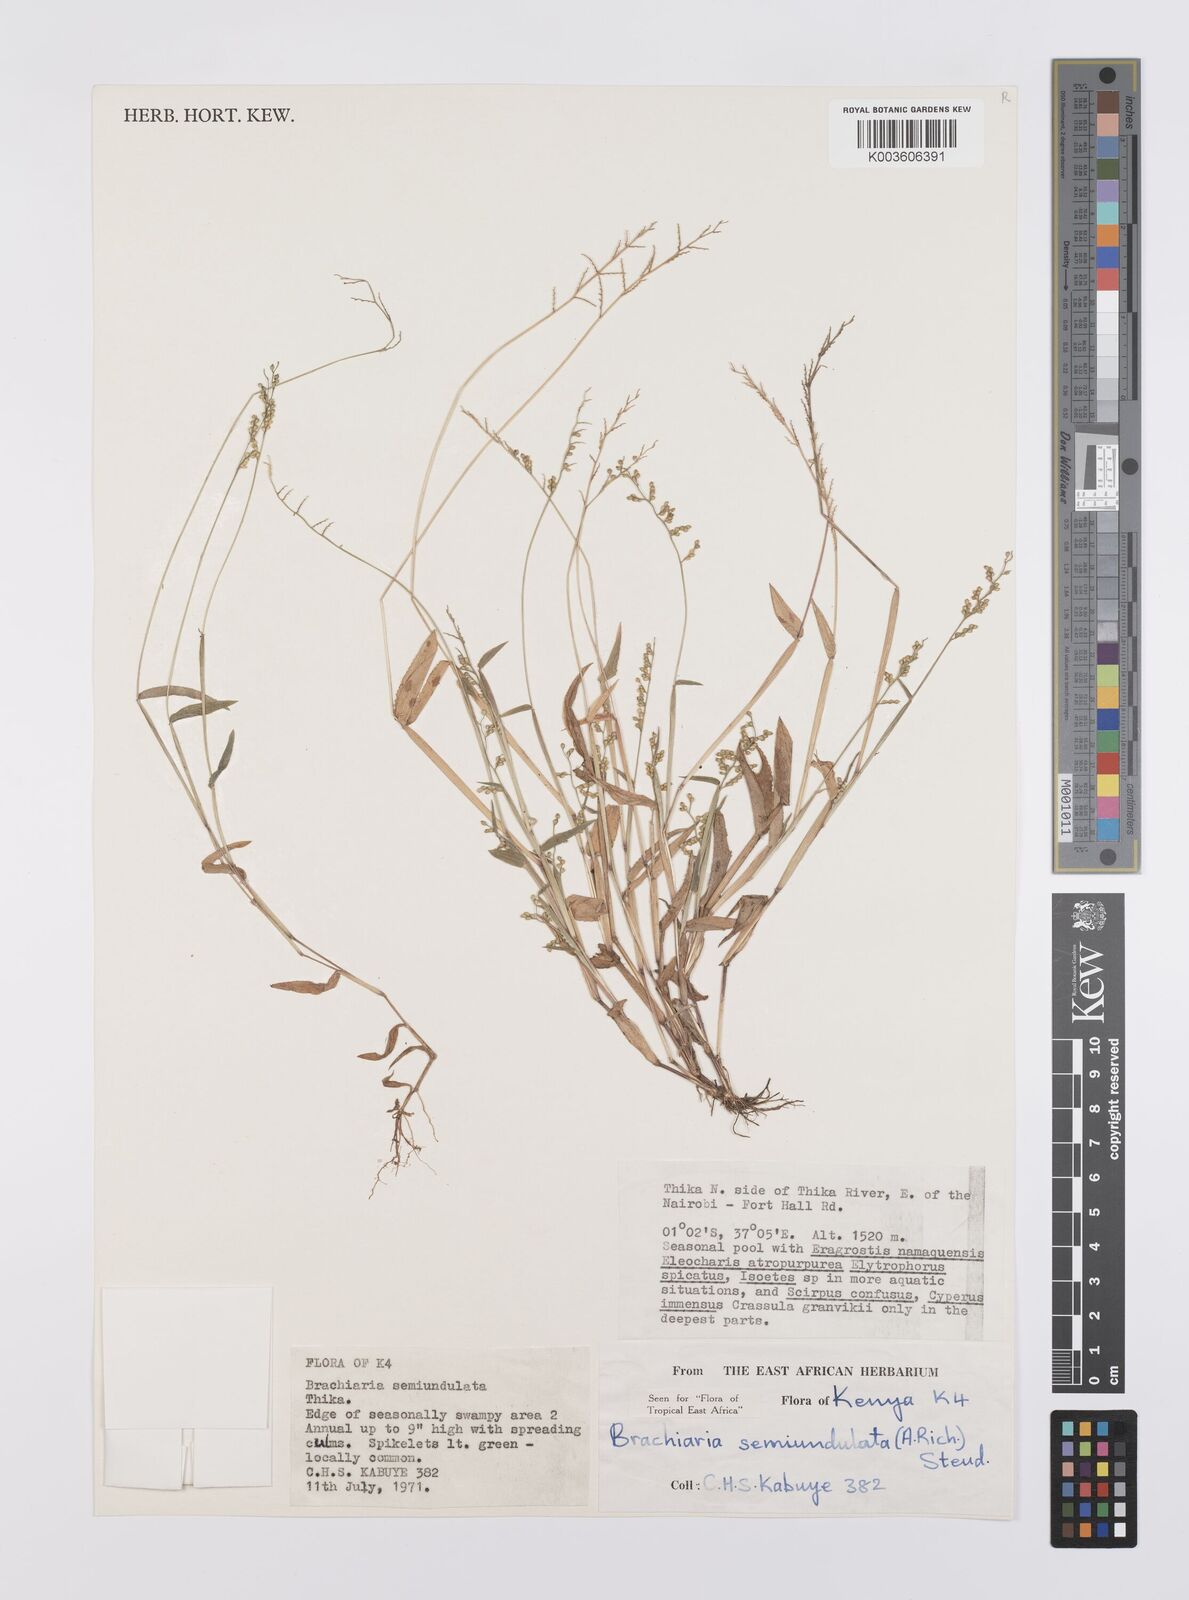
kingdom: Plantae
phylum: Tracheophyta
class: Liliopsida
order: Poales
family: Poaceae
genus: Urochloa
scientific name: Urochloa semiundulata
